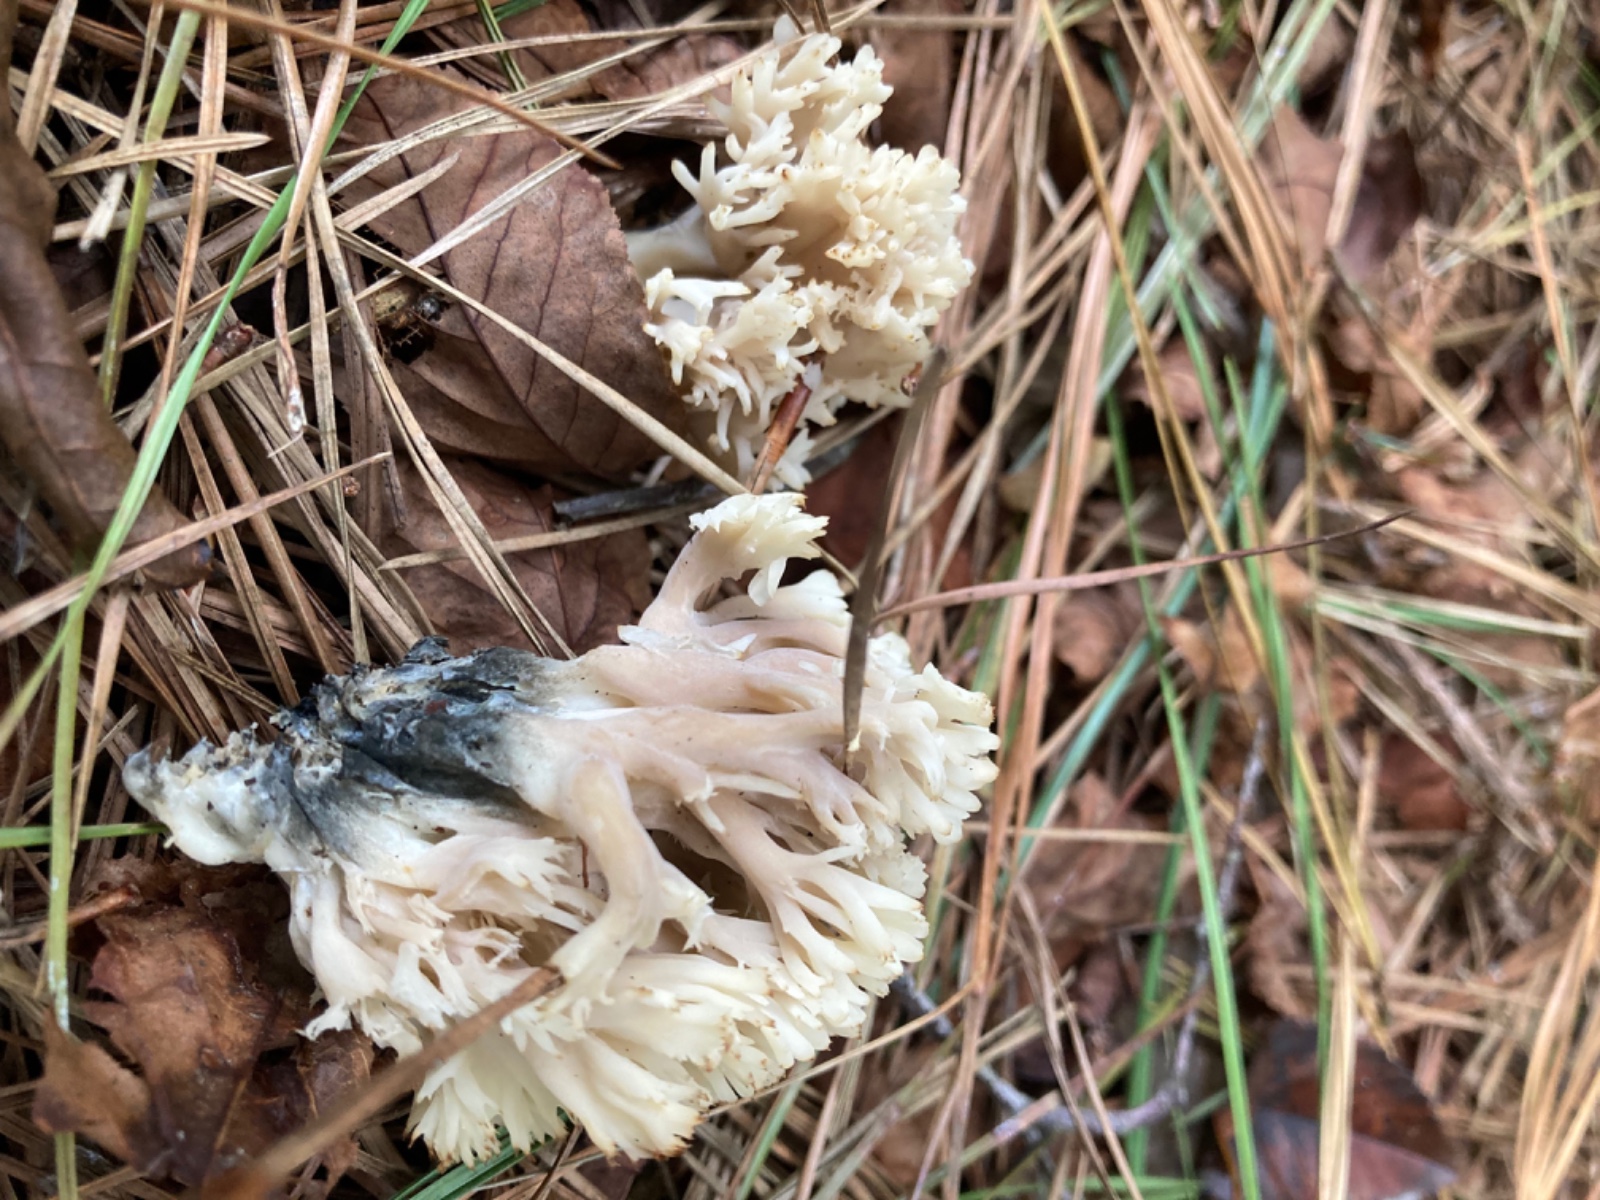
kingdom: Fungi
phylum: Basidiomycota
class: Agaricomycetes
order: Cantharellales
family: Hydnaceae
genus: Clavulina
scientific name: Clavulina
